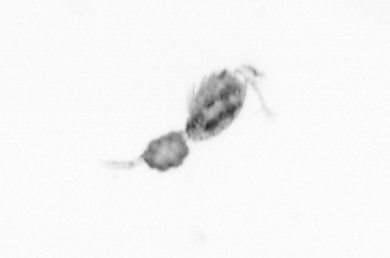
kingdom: Animalia
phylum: Arthropoda
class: Copepoda
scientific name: Copepoda
